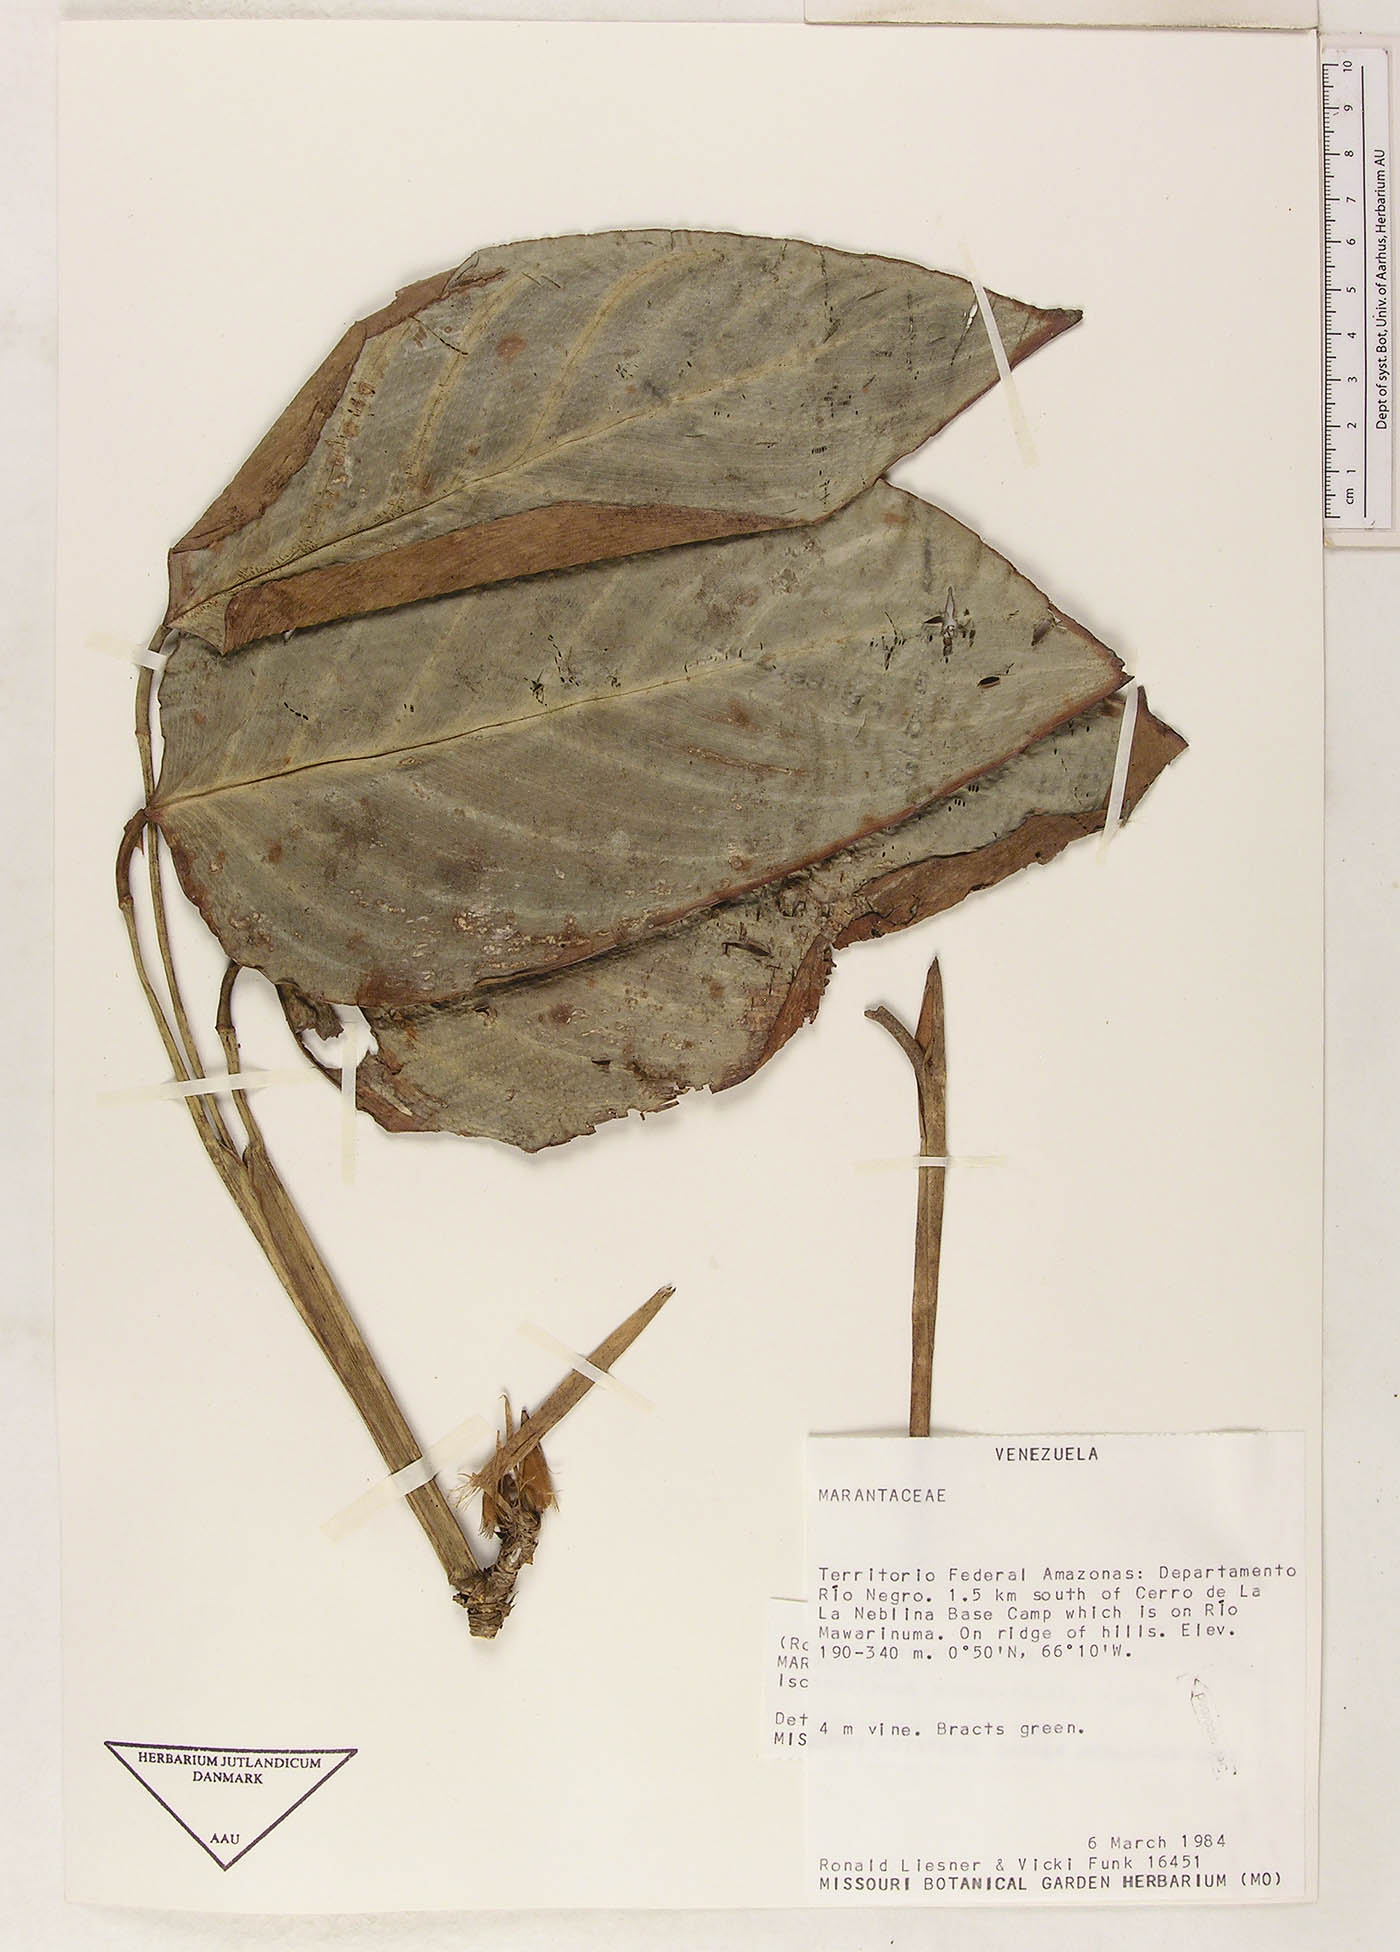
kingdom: Plantae
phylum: Tracheophyta
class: Liliopsida
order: Zingiberales
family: Marantaceae
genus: Ischnosiphon
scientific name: Ischnosiphon arouma
